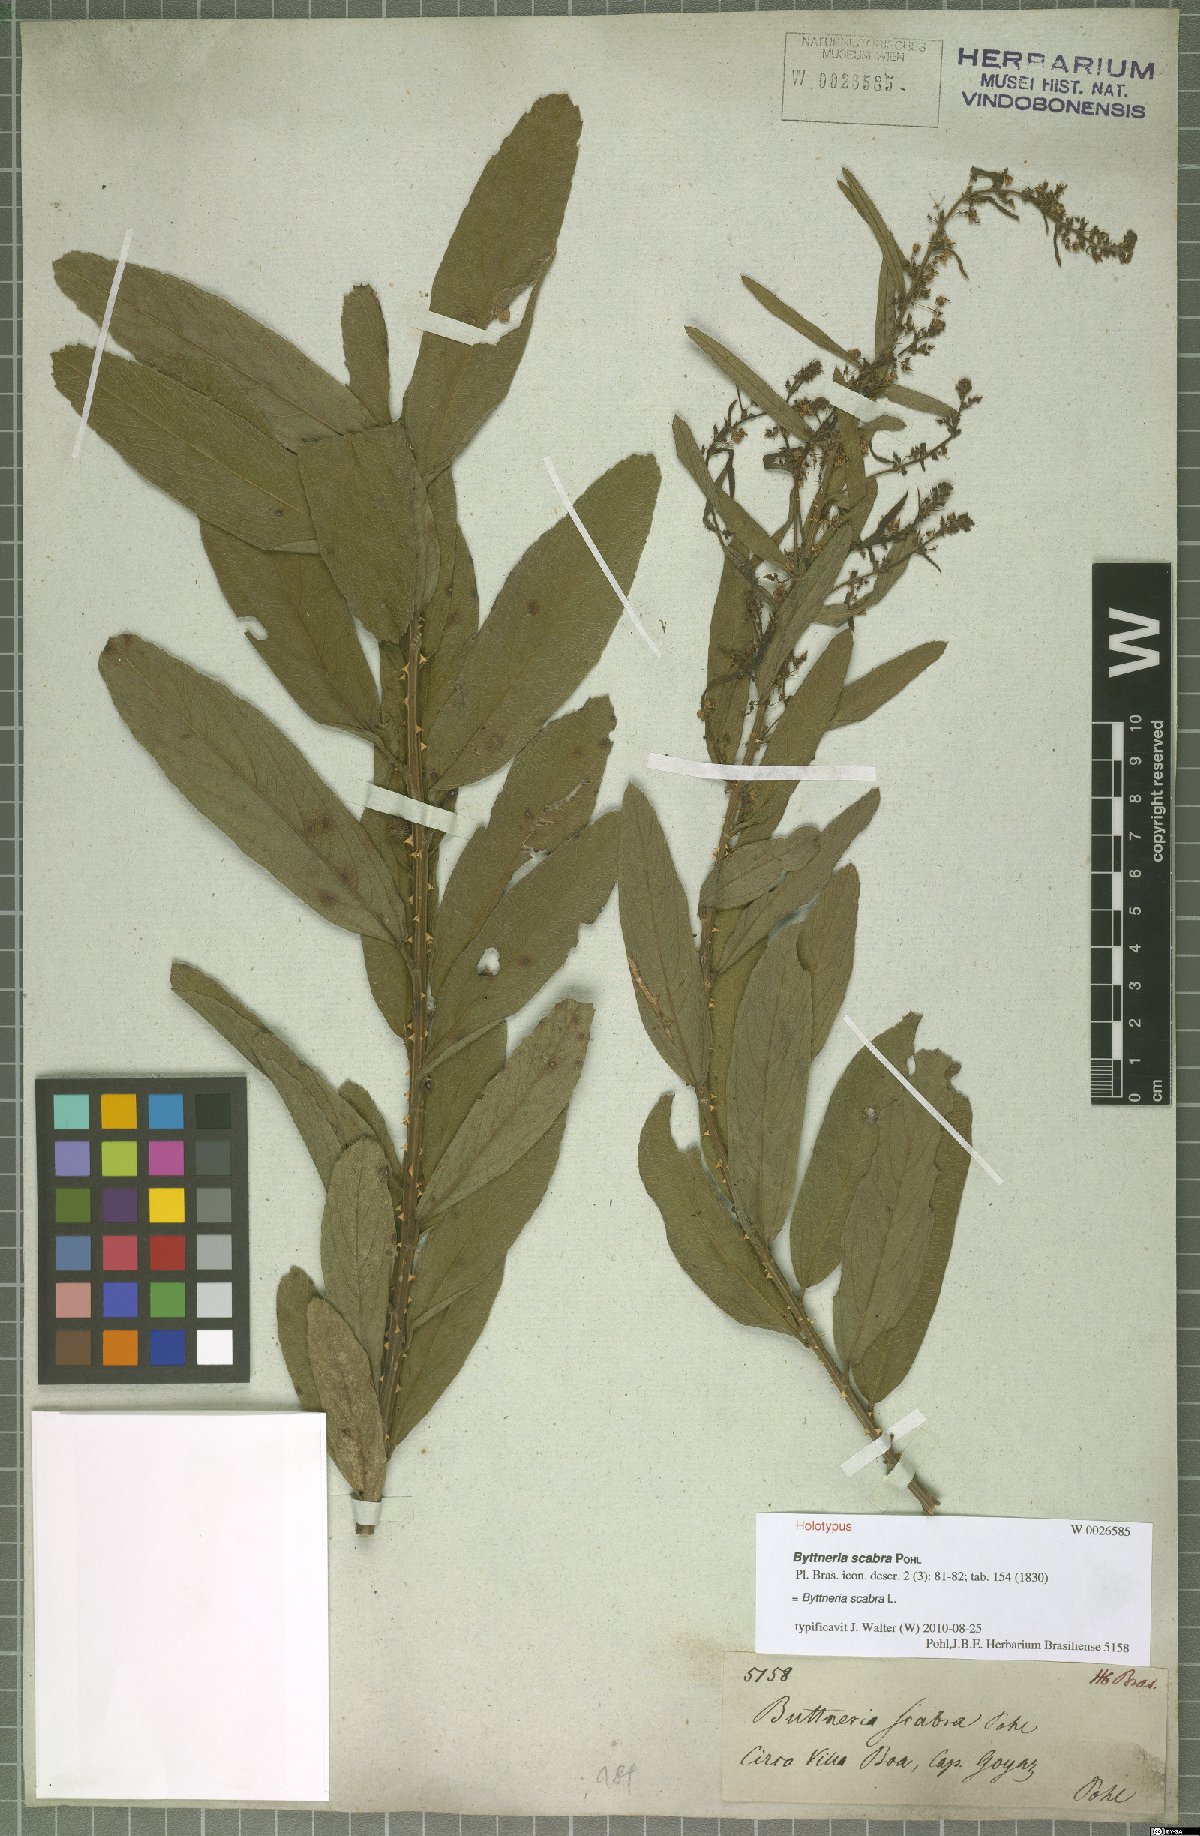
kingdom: Plantae
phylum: Tracheophyta
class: Magnoliopsida
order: Malvales
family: Malvaceae
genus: Byttneria
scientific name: Byttneria scabra
